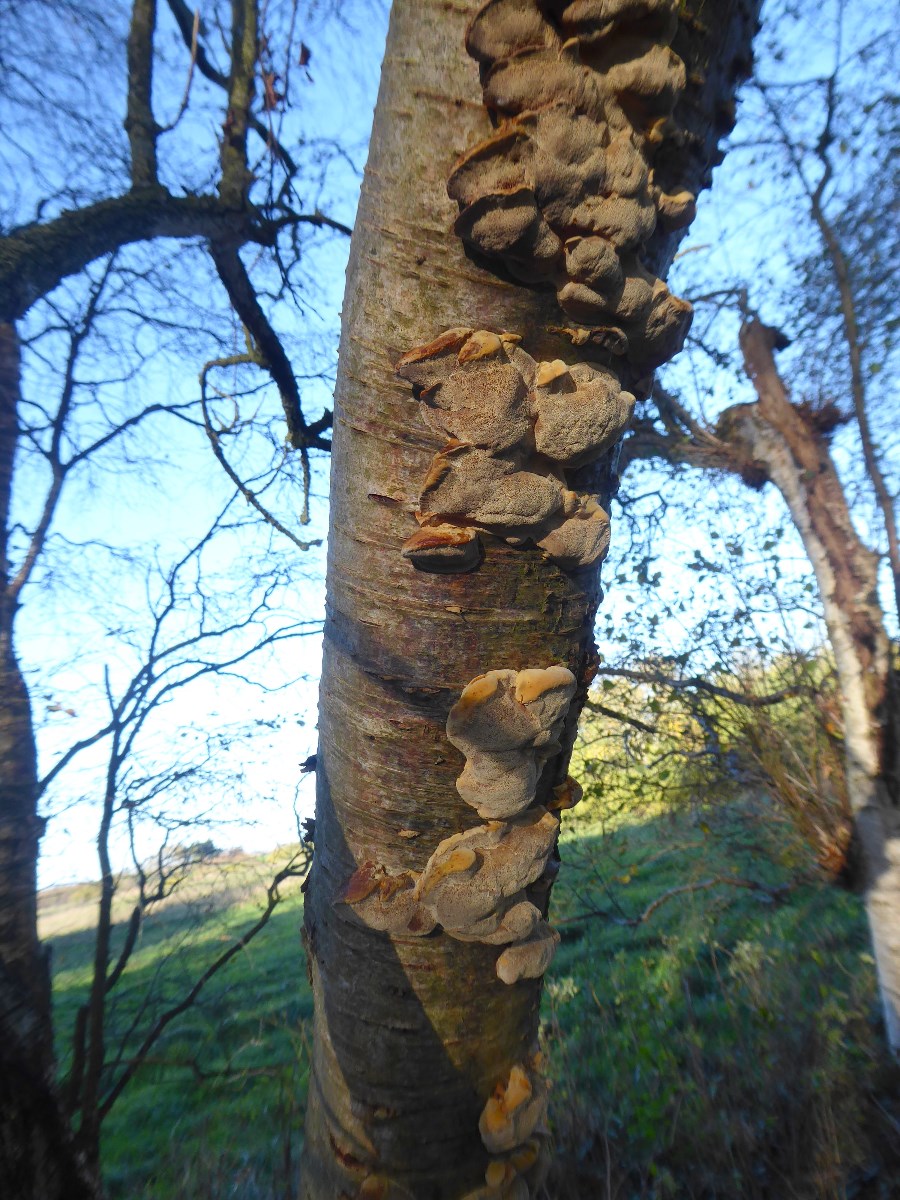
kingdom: Fungi
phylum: Basidiomycota
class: Agaricomycetes
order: Hymenochaetales
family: Hymenochaetaceae
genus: Xanthoporia
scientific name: Xanthoporia radiata
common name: elle-spejlporesvamp
